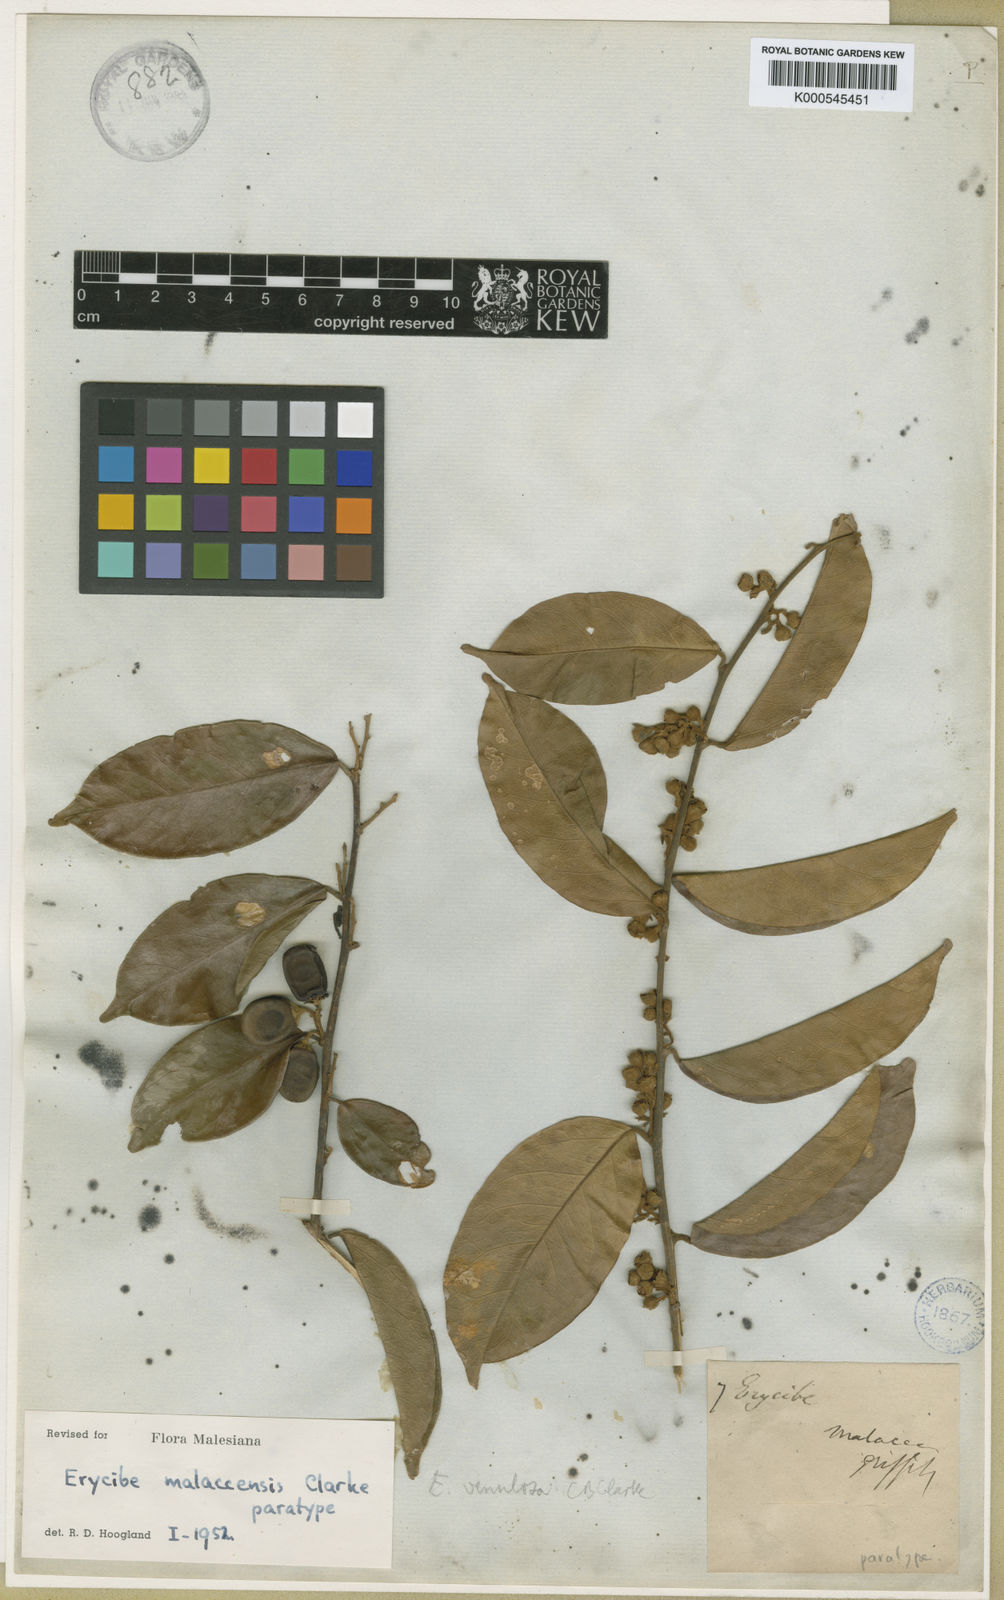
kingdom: Plantae
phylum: Tracheophyta
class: Magnoliopsida
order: Solanales
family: Convolvulaceae
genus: Erycibe
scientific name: Erycibe malaccensis
